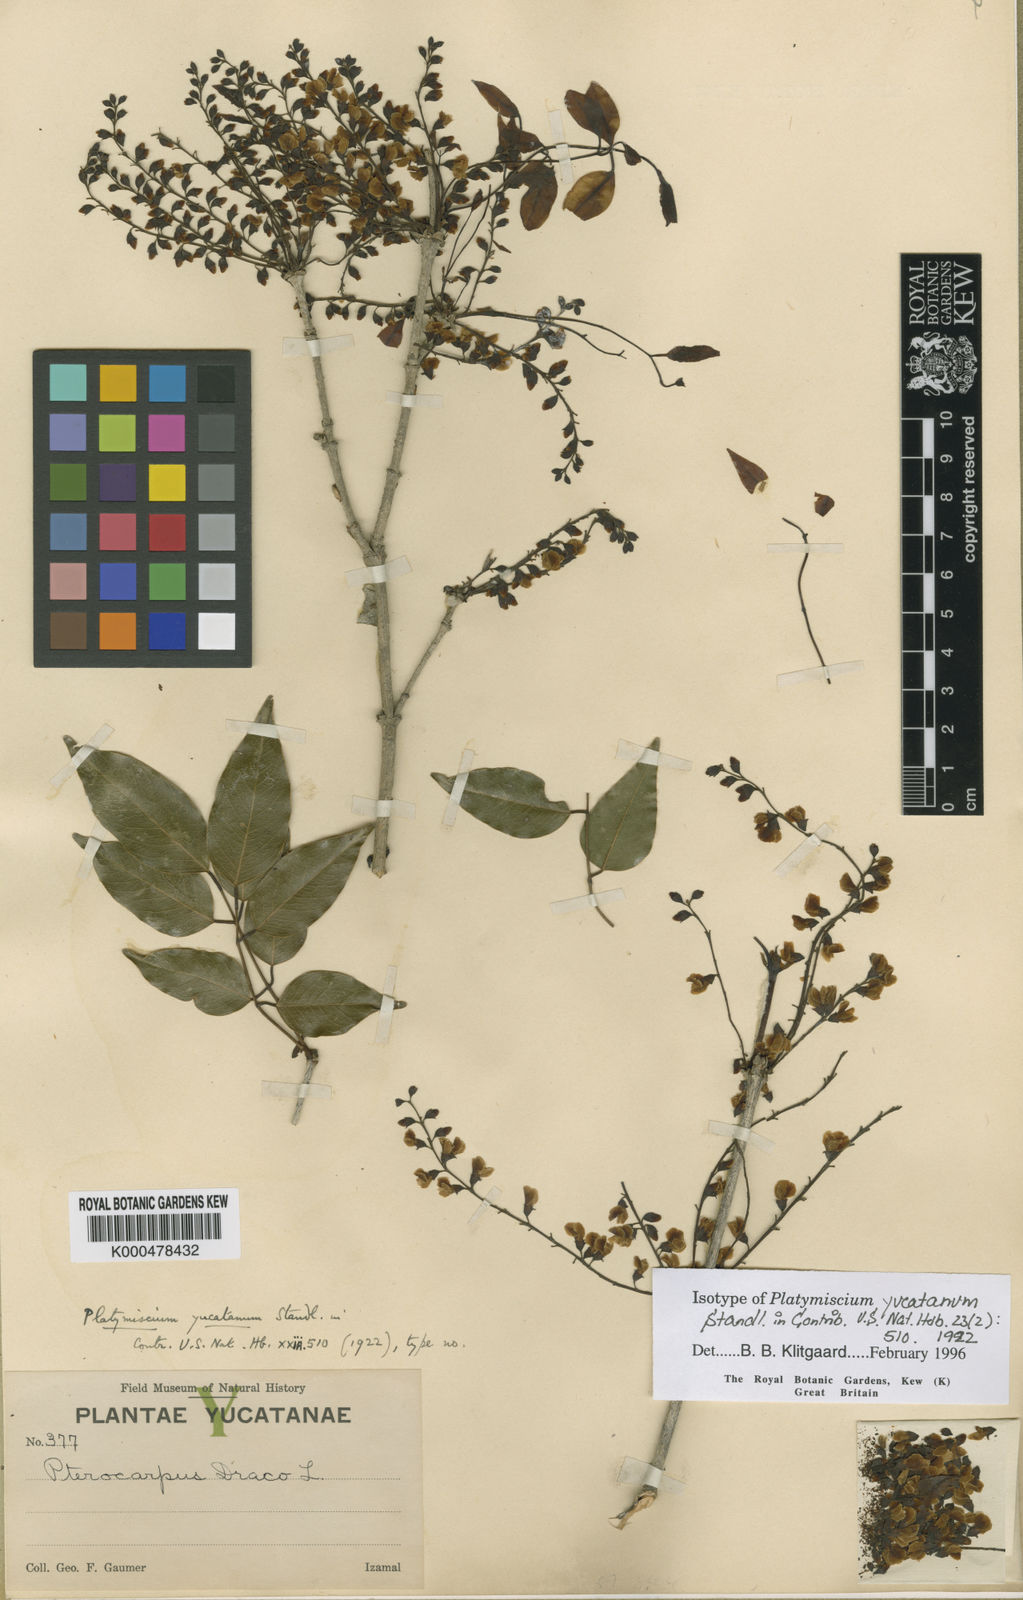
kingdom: Plantae
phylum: Tracheophyta
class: Magnoliopsida
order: Fabales
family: Fabaceae
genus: Platymiscium
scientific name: Platymiscium yucatanum
